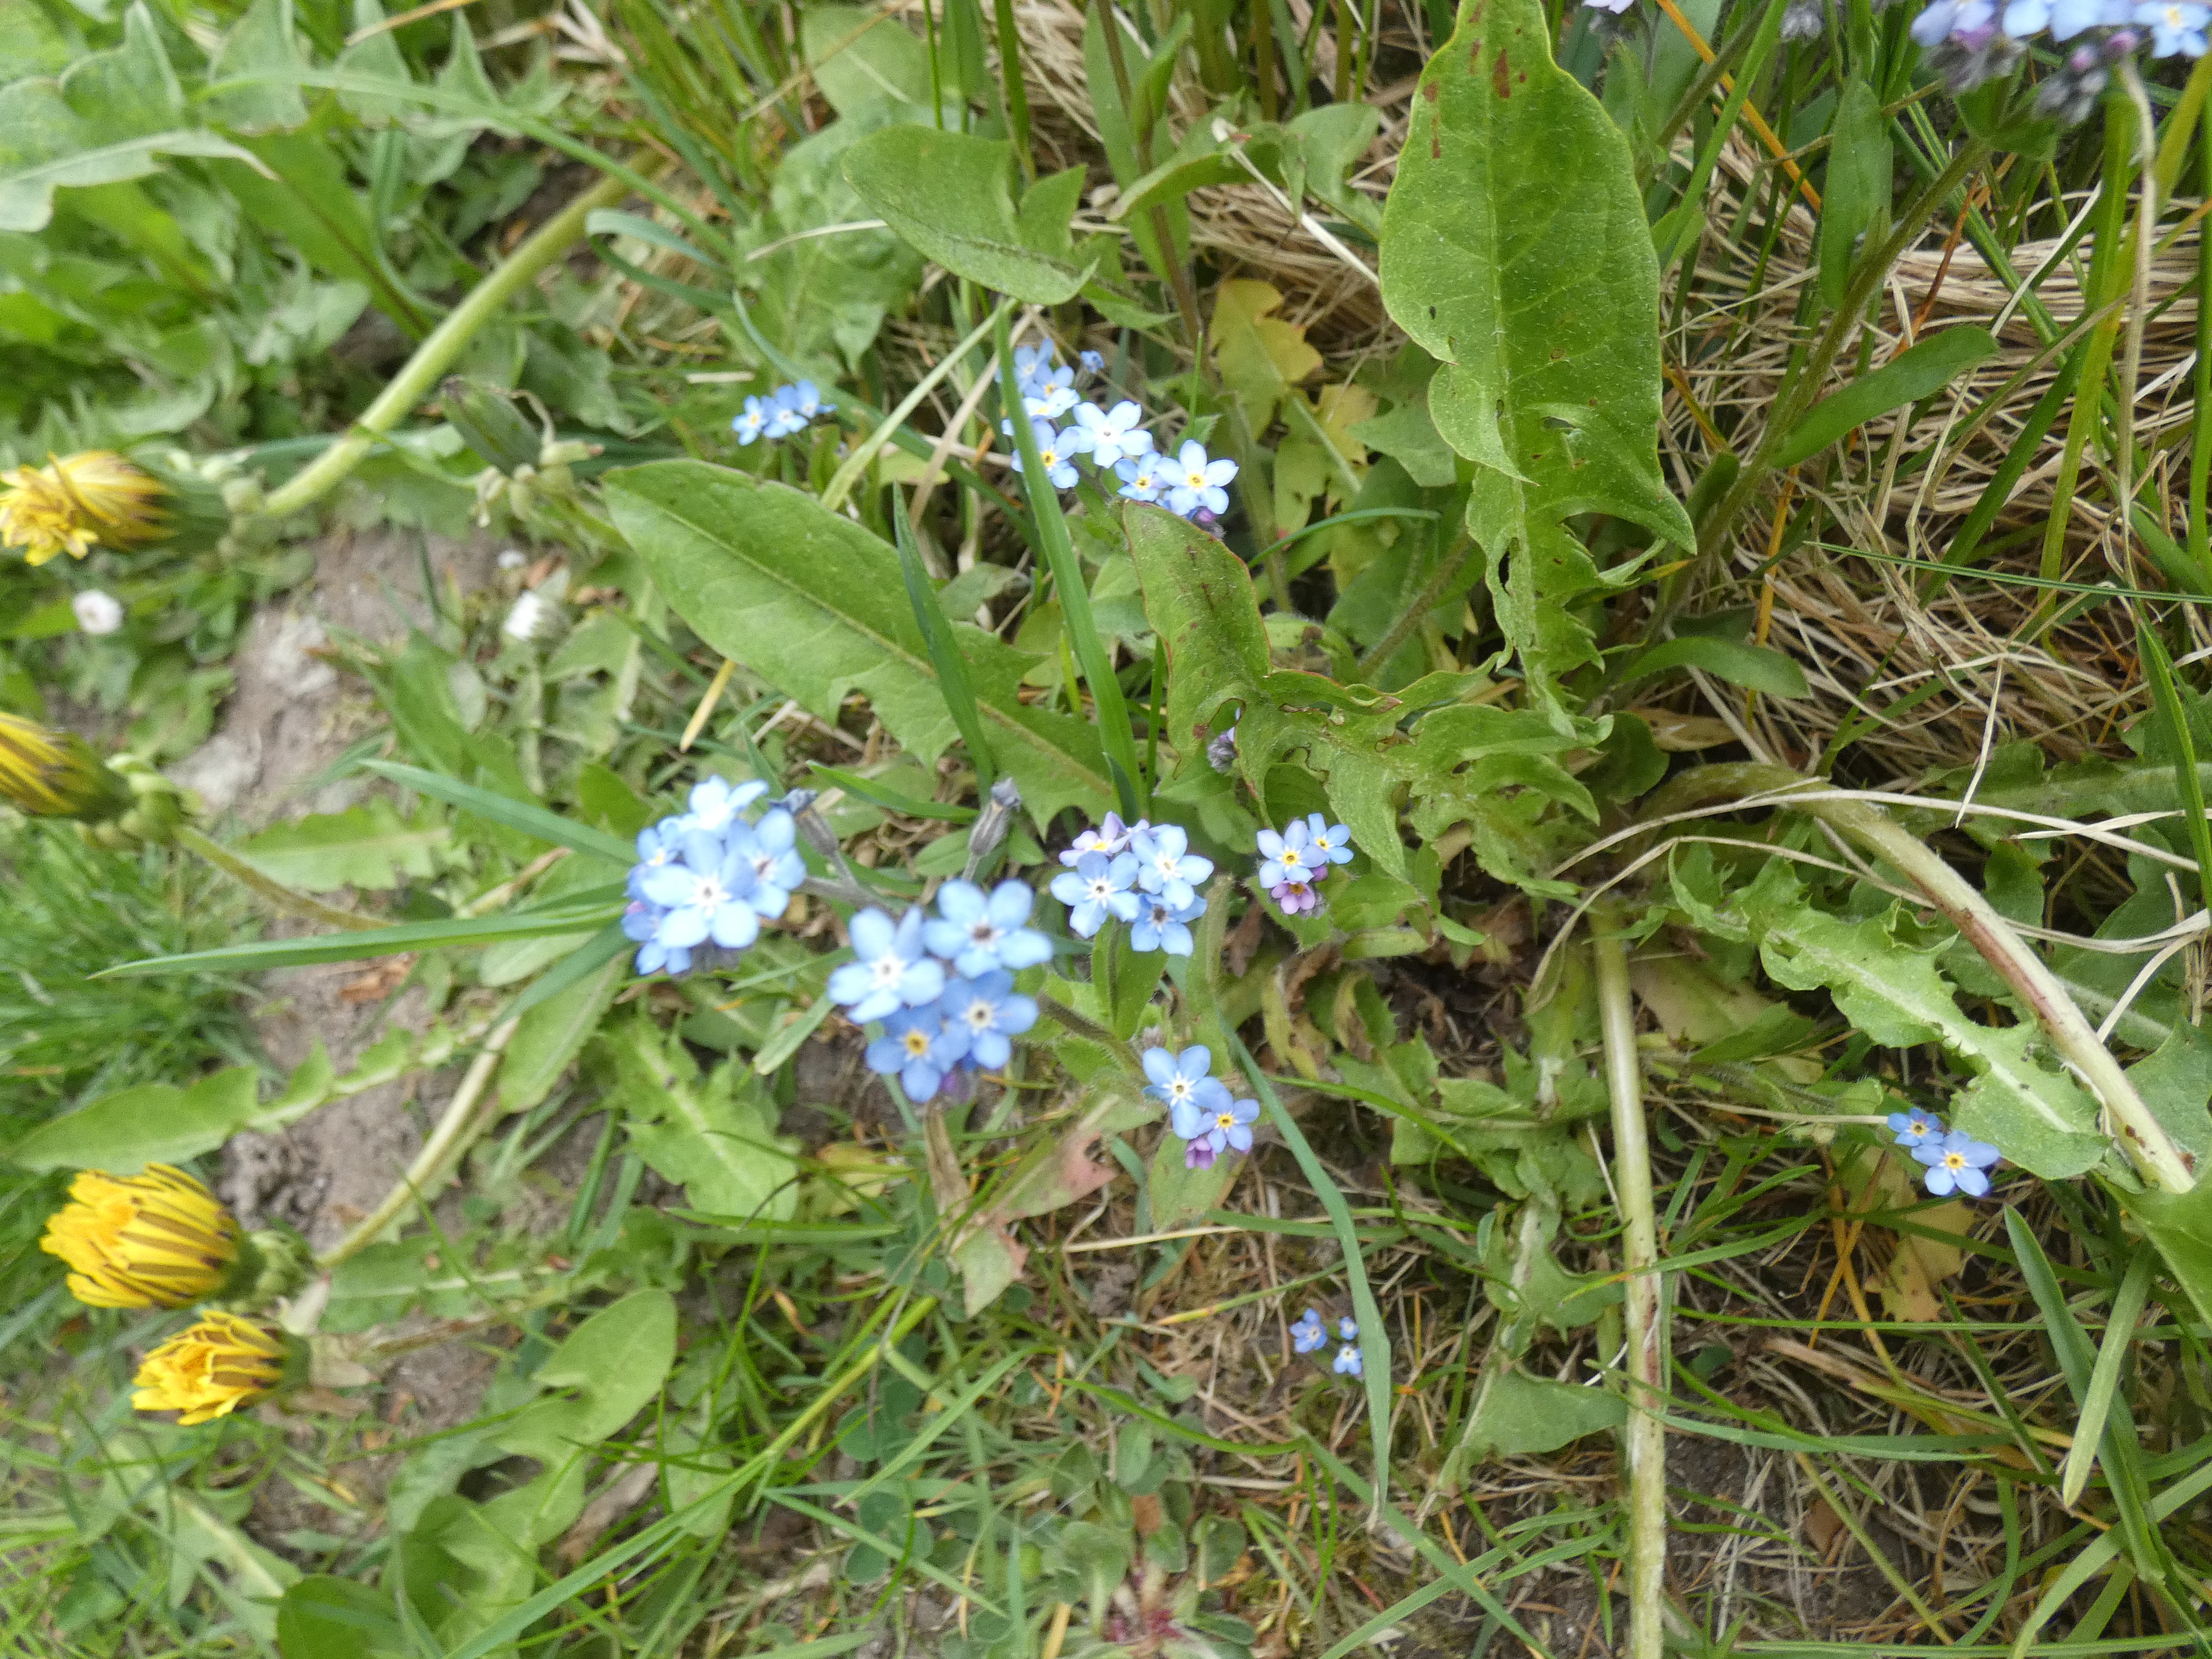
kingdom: Plantae
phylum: Tracheophyta
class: Magnoliopsida
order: Boraginales
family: Boraginaceae
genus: Myosotis
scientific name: Myosotis sylvatica
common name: Skov-forglemmigej
